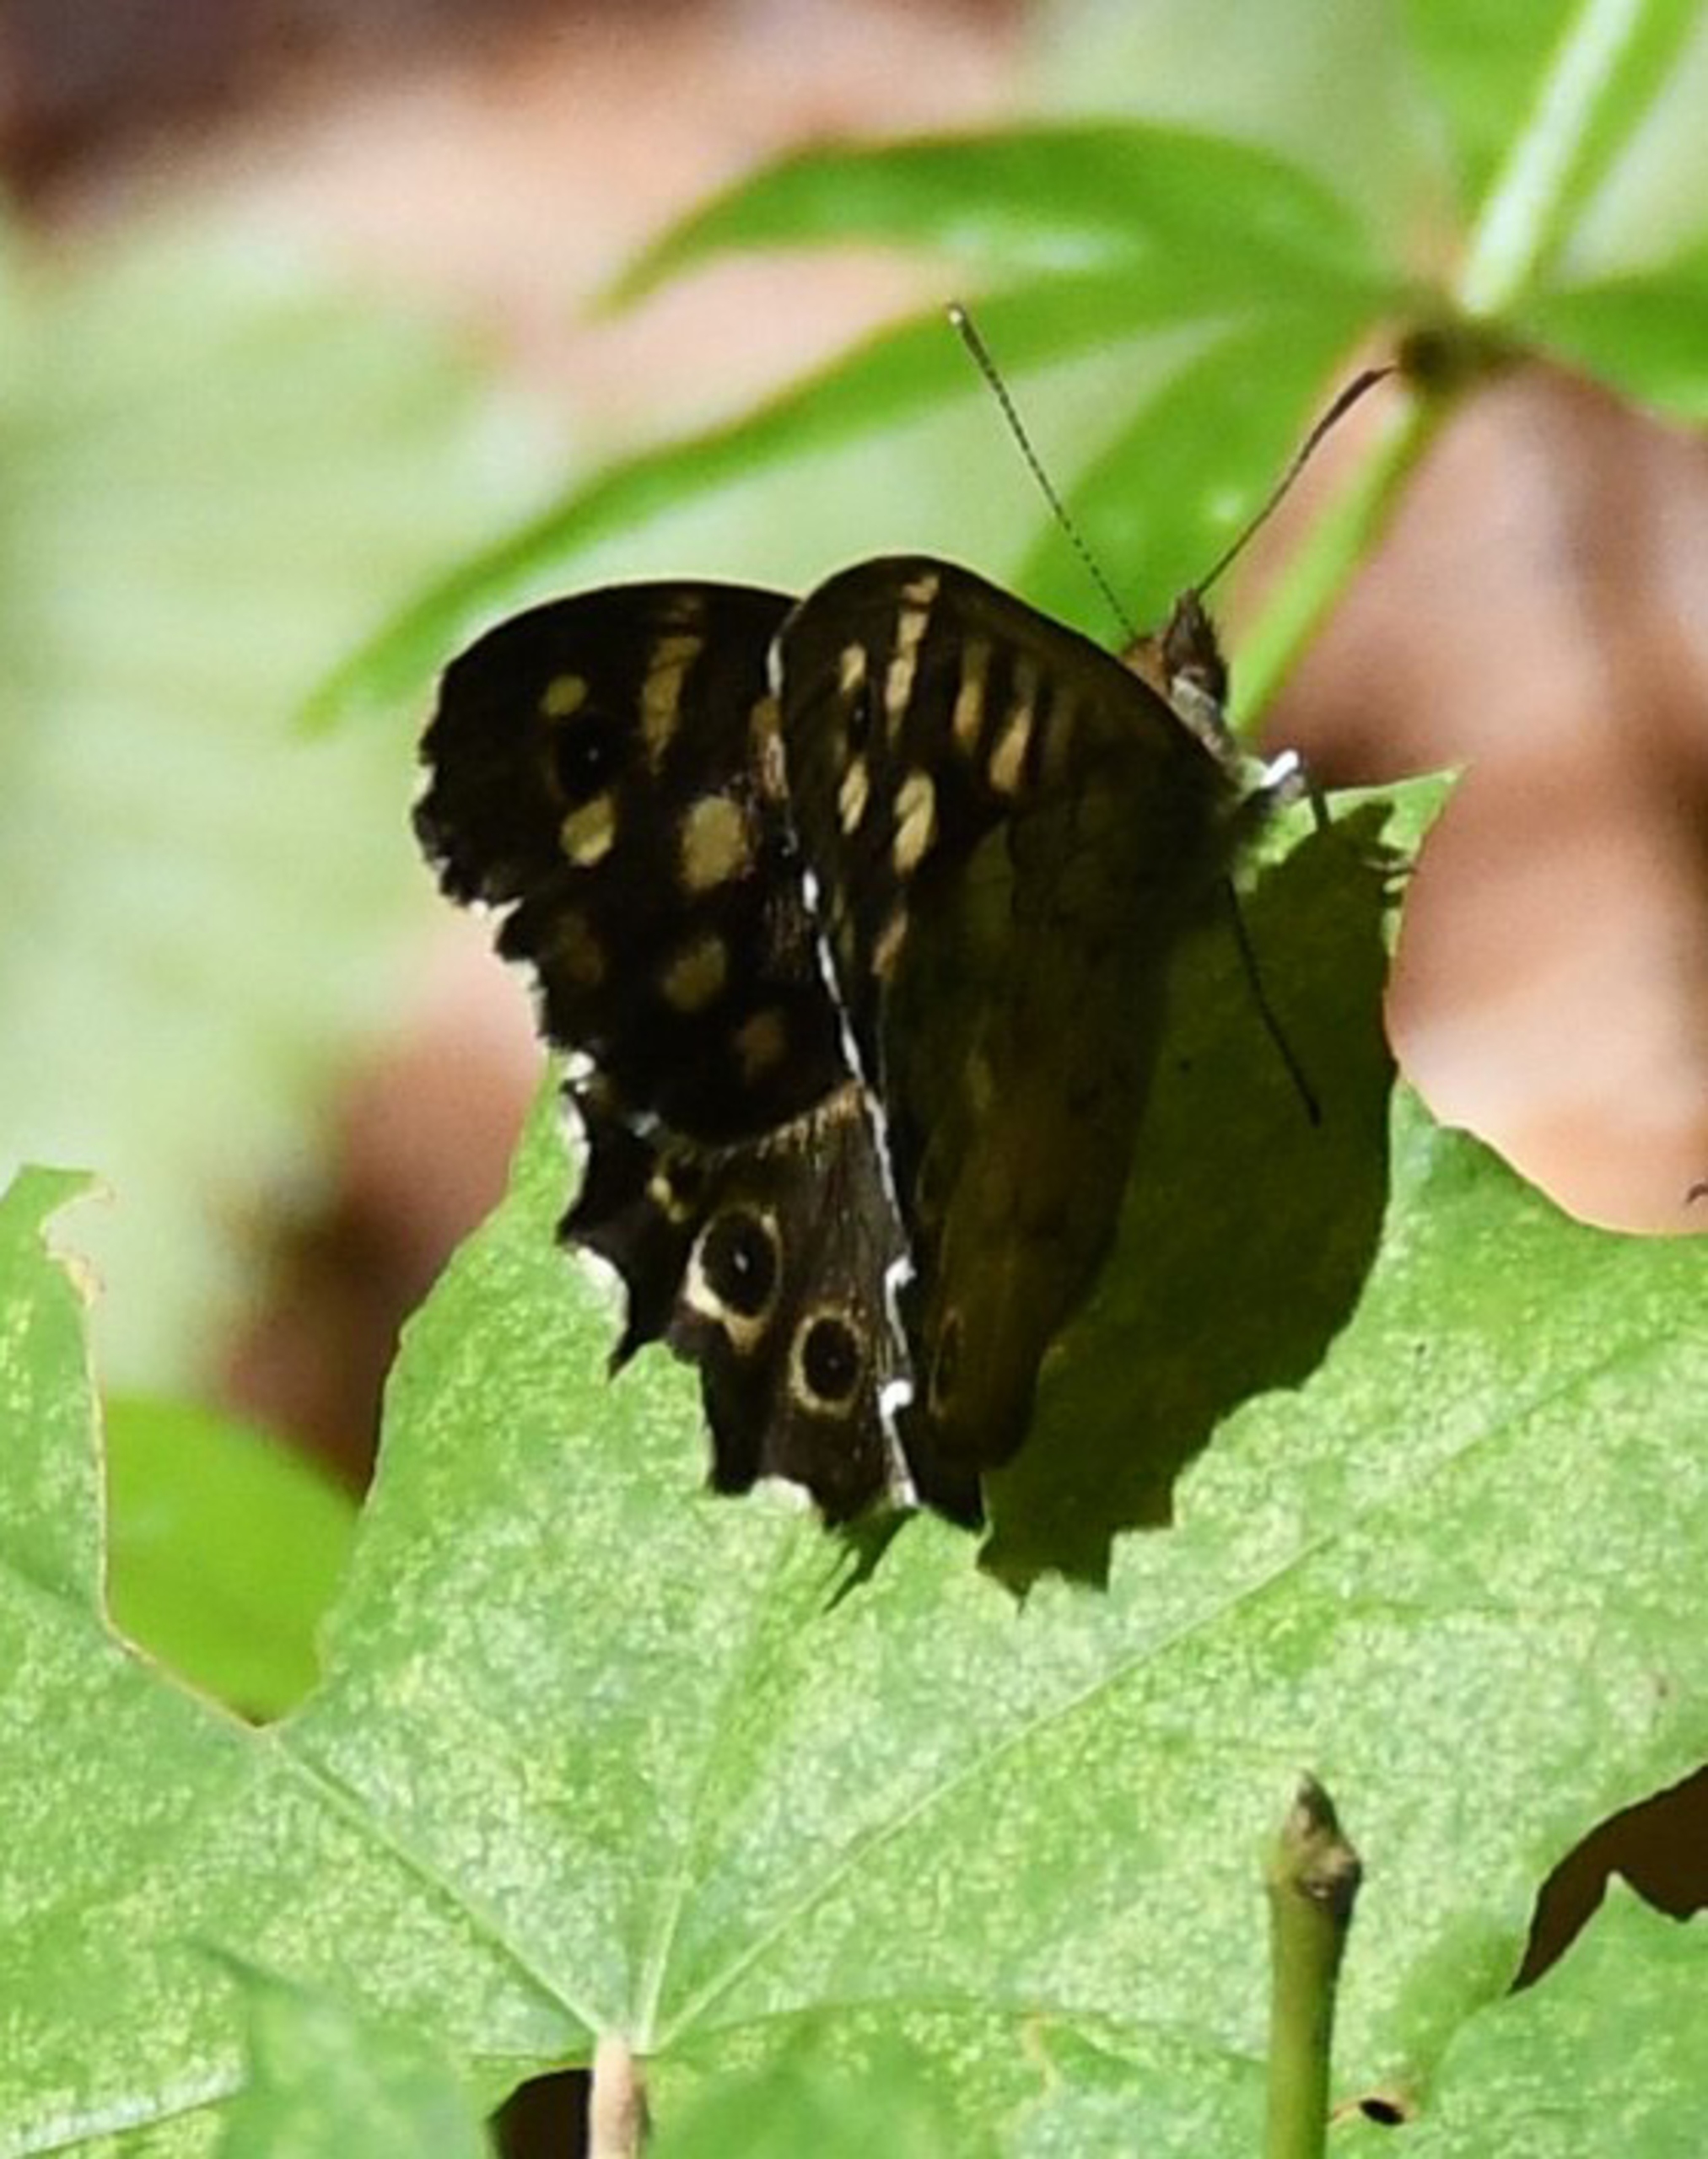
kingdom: Animalia
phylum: Arthropoda
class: Insecta
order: Lepidoptera
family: Nymphalidae
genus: Pararge
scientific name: Pararge aegeria
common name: Skovrandøje
